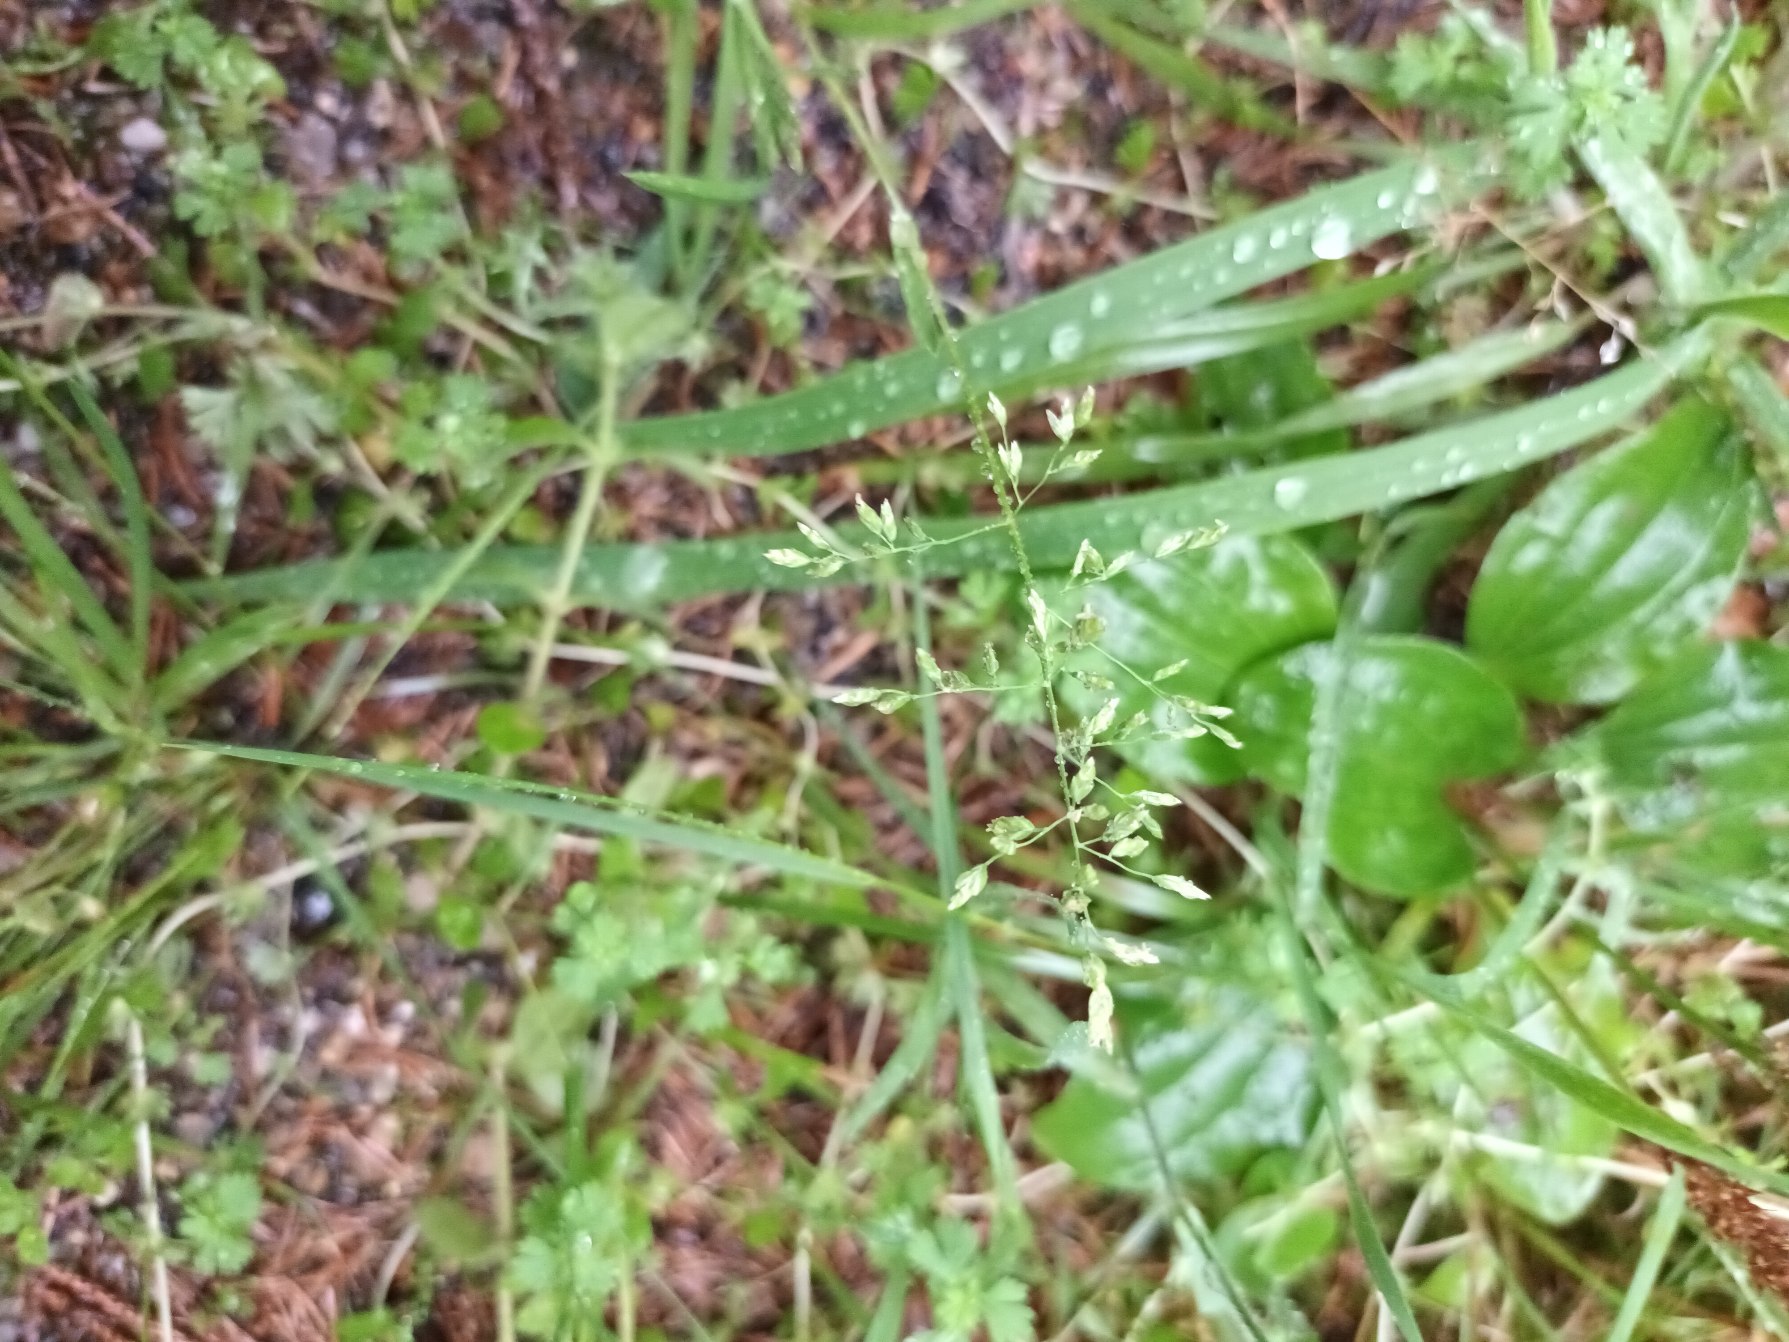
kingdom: Plantae
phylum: Tracheophyta
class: Liliopsida
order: Poales
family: Poaceae
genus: Poa
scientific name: Poa annua
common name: Enårig rapgræs
